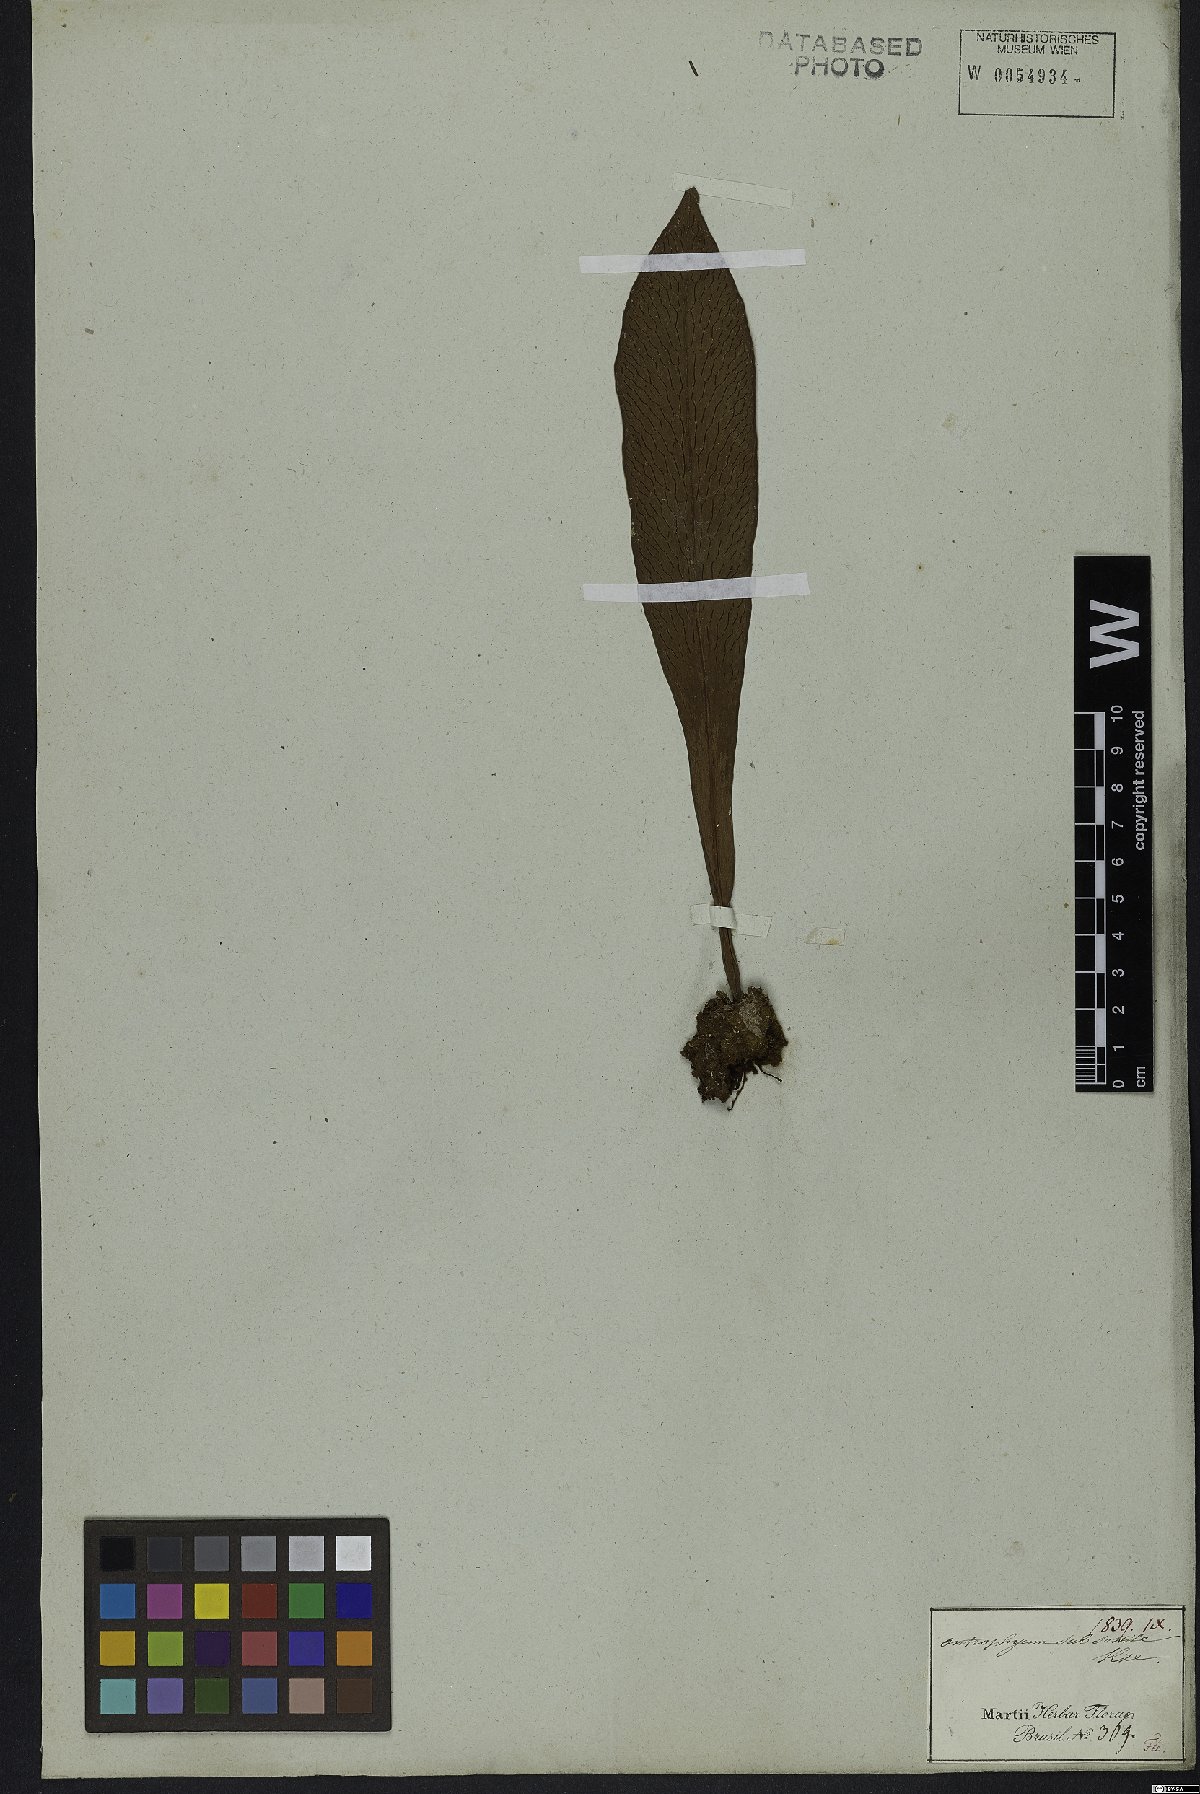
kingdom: Plantae
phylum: Tracheophyta
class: Polypodiopsida
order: Polypodiales
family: Pteridaceae
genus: Polytaenium
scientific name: Polytaenium cajenense
